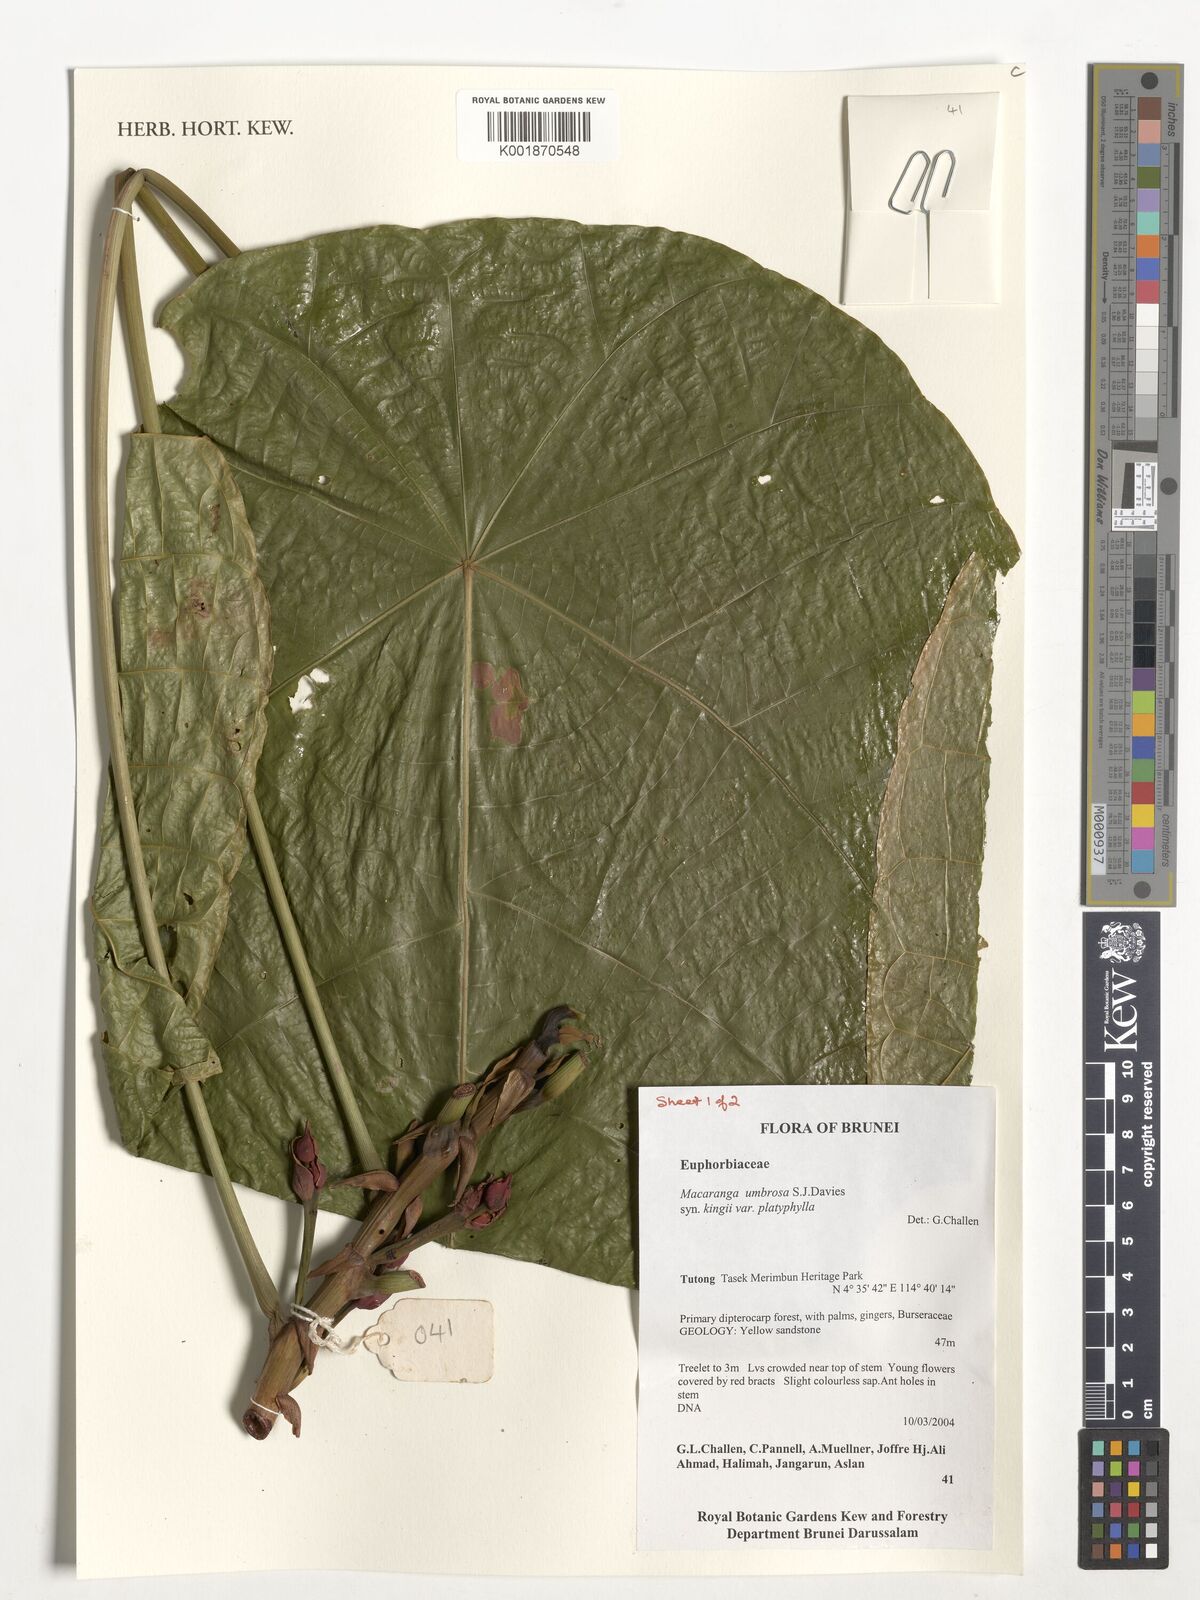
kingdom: Plantae
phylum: Tracheophyta
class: Magnoliopsida
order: Malpighiales
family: Euphorbiaceae
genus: Macaranga
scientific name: Macaranga umbrosa
